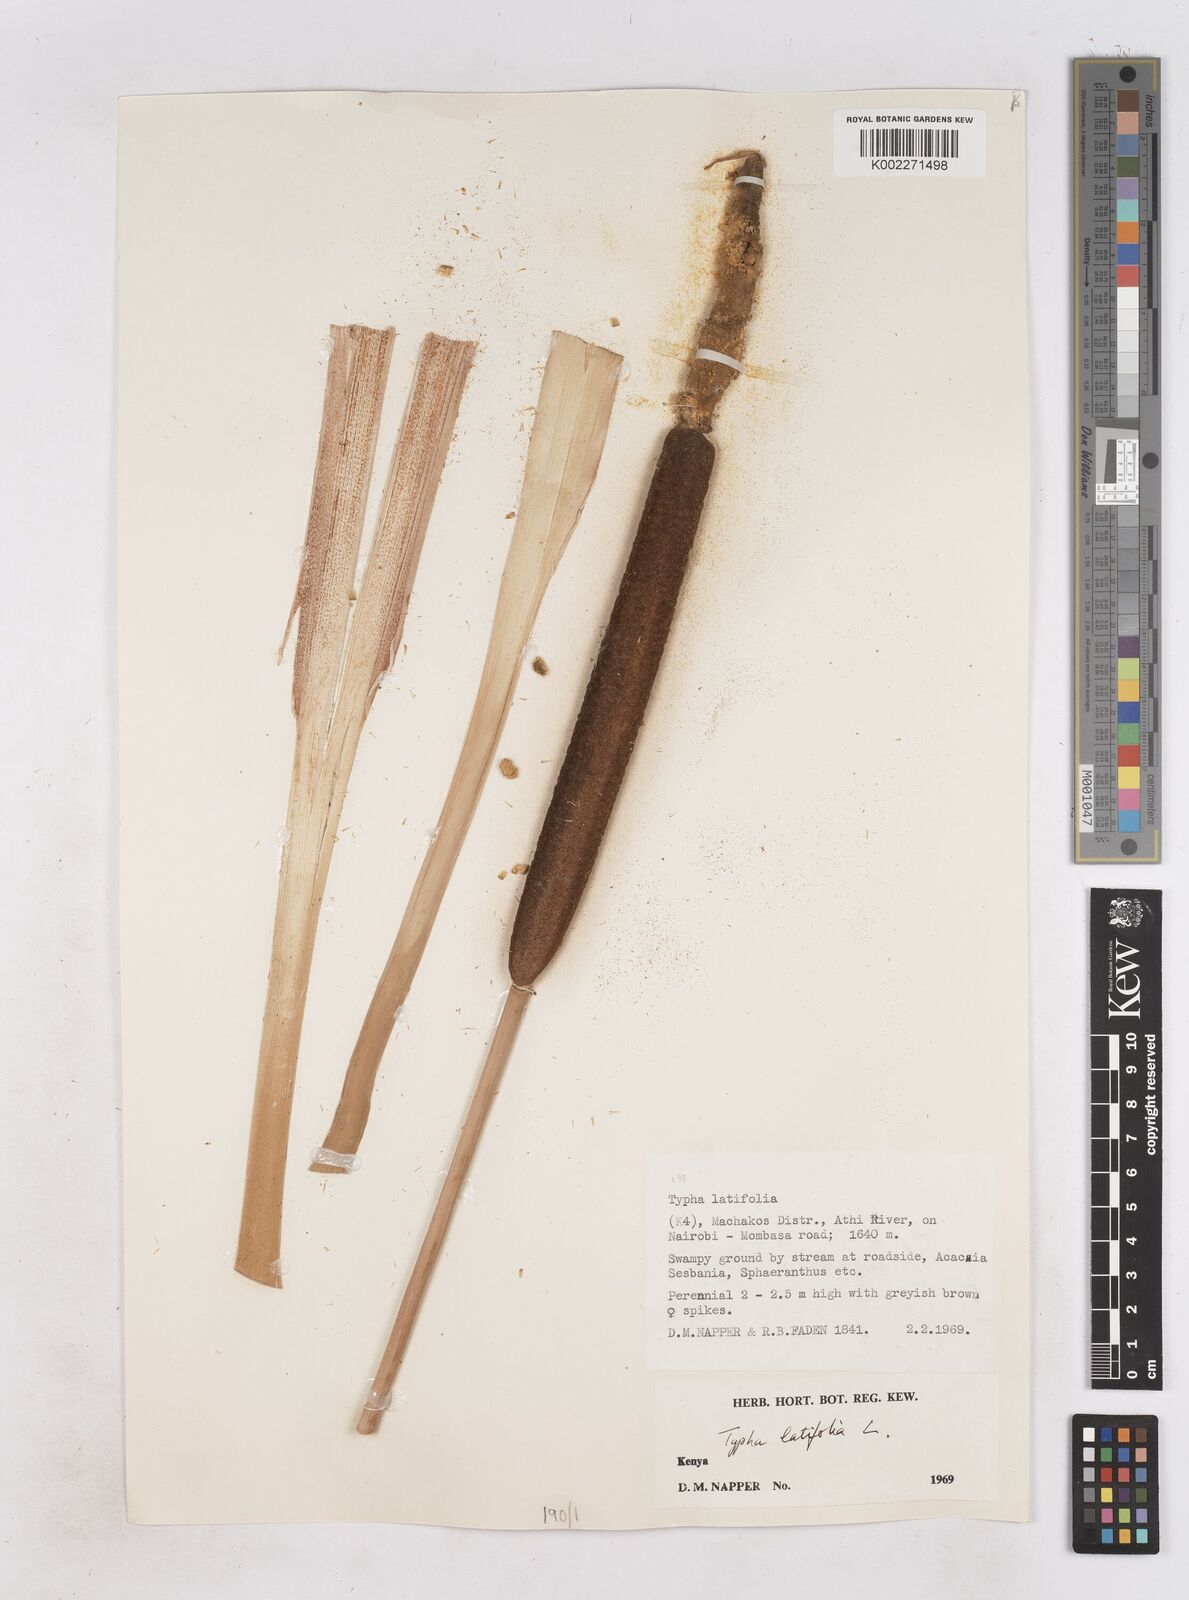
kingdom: Plantae
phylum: Tracheophyta
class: Liliopsida
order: Poales
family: Typhaceae
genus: Typha
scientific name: Typha latifolia
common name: Broadleaf cattail
